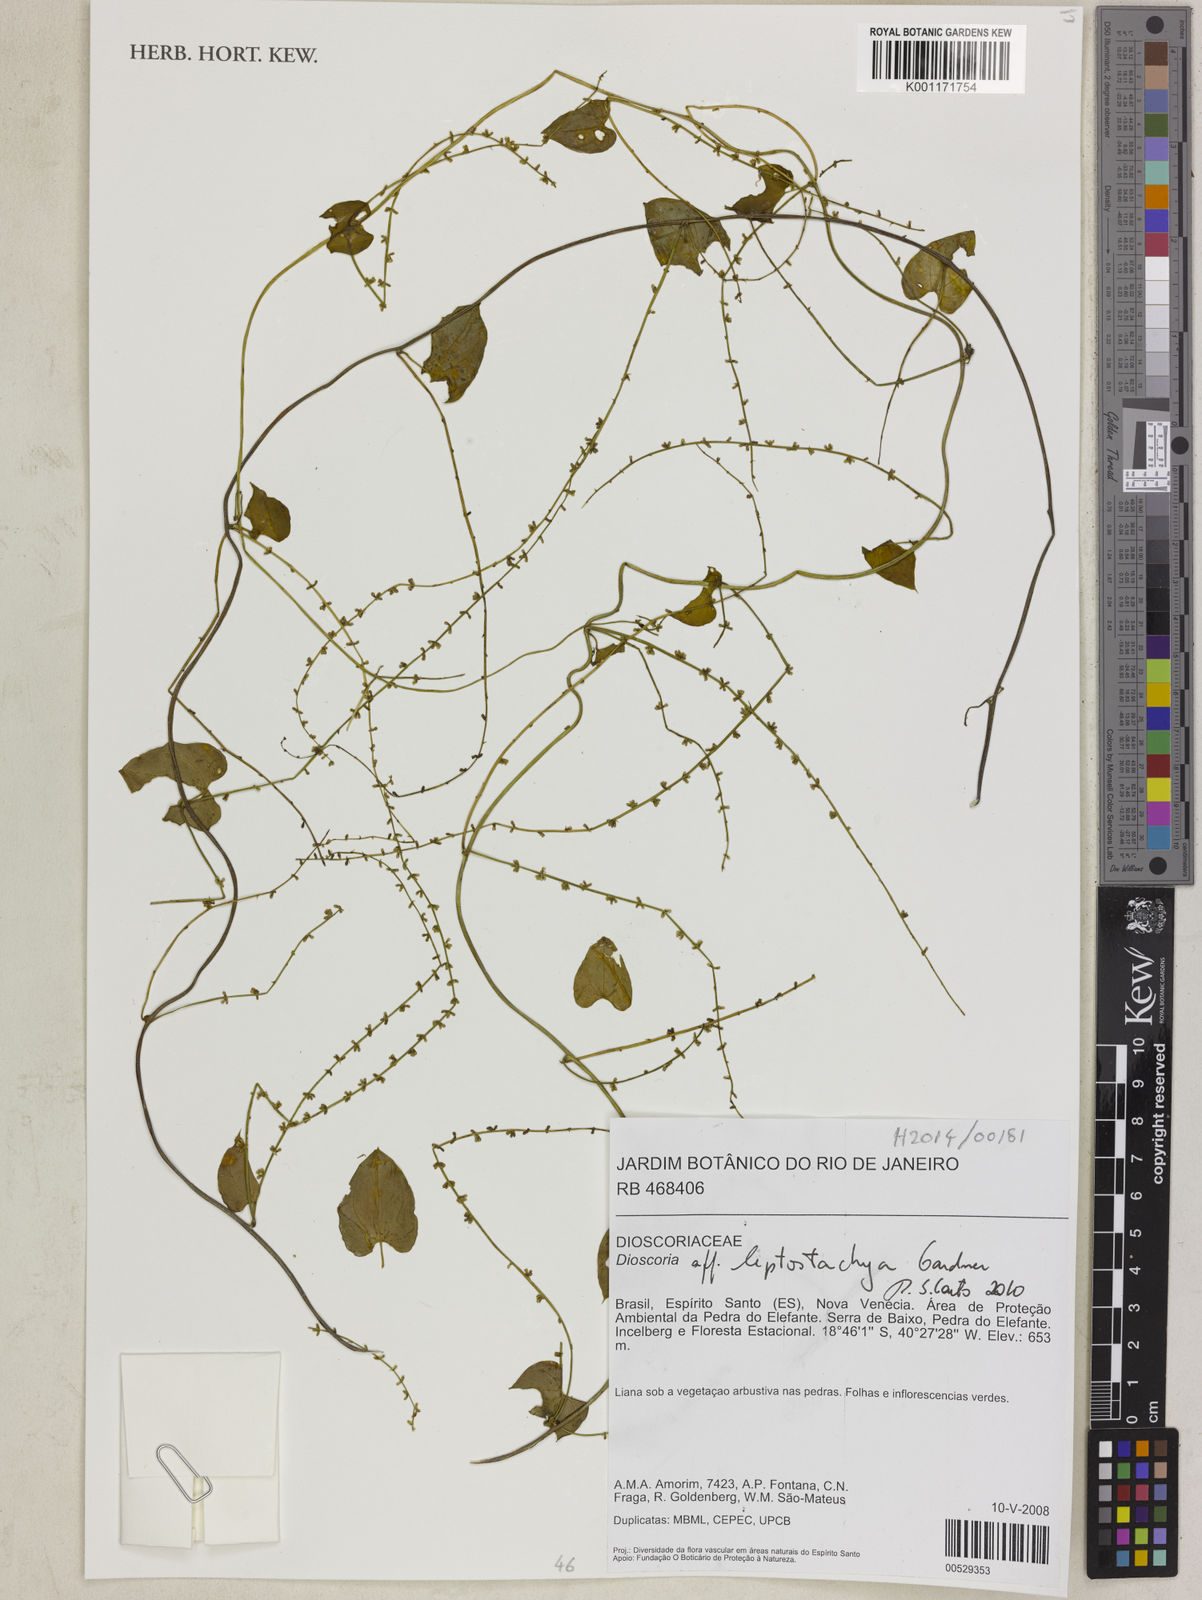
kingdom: Plantae
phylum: Tracheophyta
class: Liliopsida
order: Dioscoreales
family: Dioscoreaceae
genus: Dioscorea
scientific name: Dioscorea martiana
